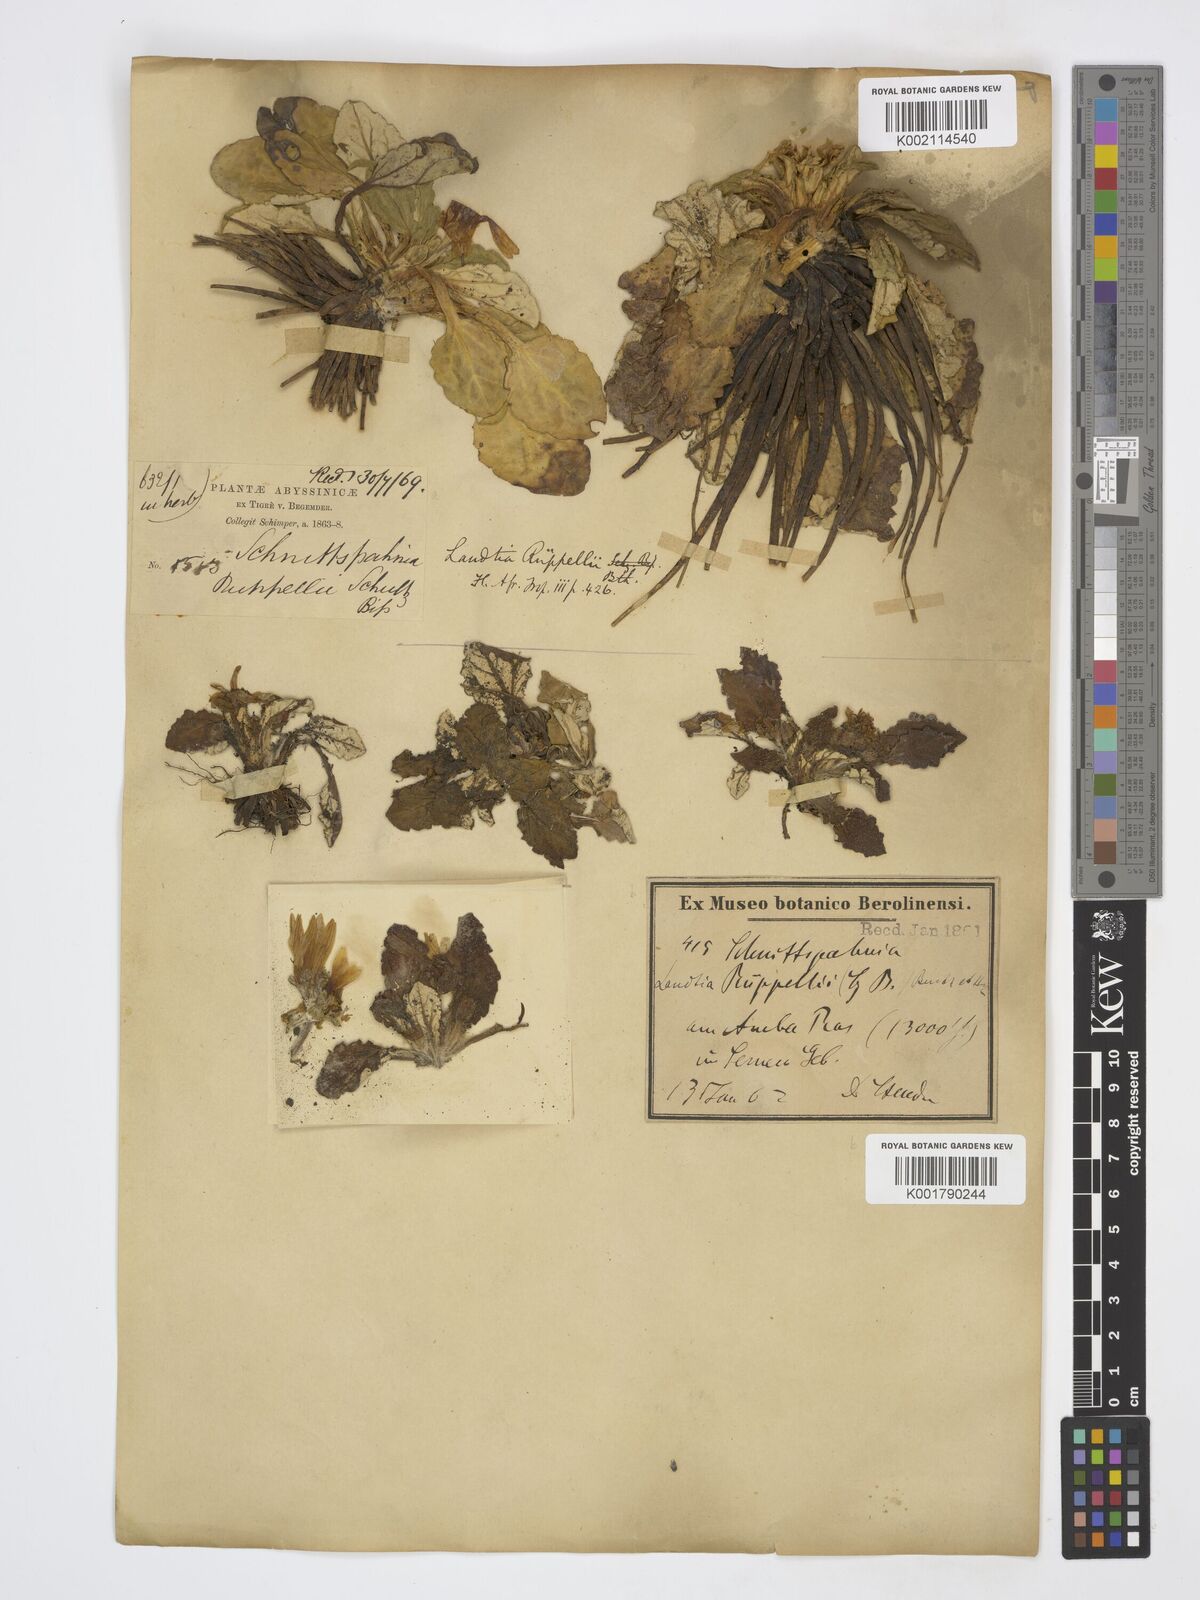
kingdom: Plantae
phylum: Tracheophyta
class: Magnoliopsida
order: Asterales
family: Asteraceae
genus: Haplocarpha
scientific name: Haplocarpha rueppelii
